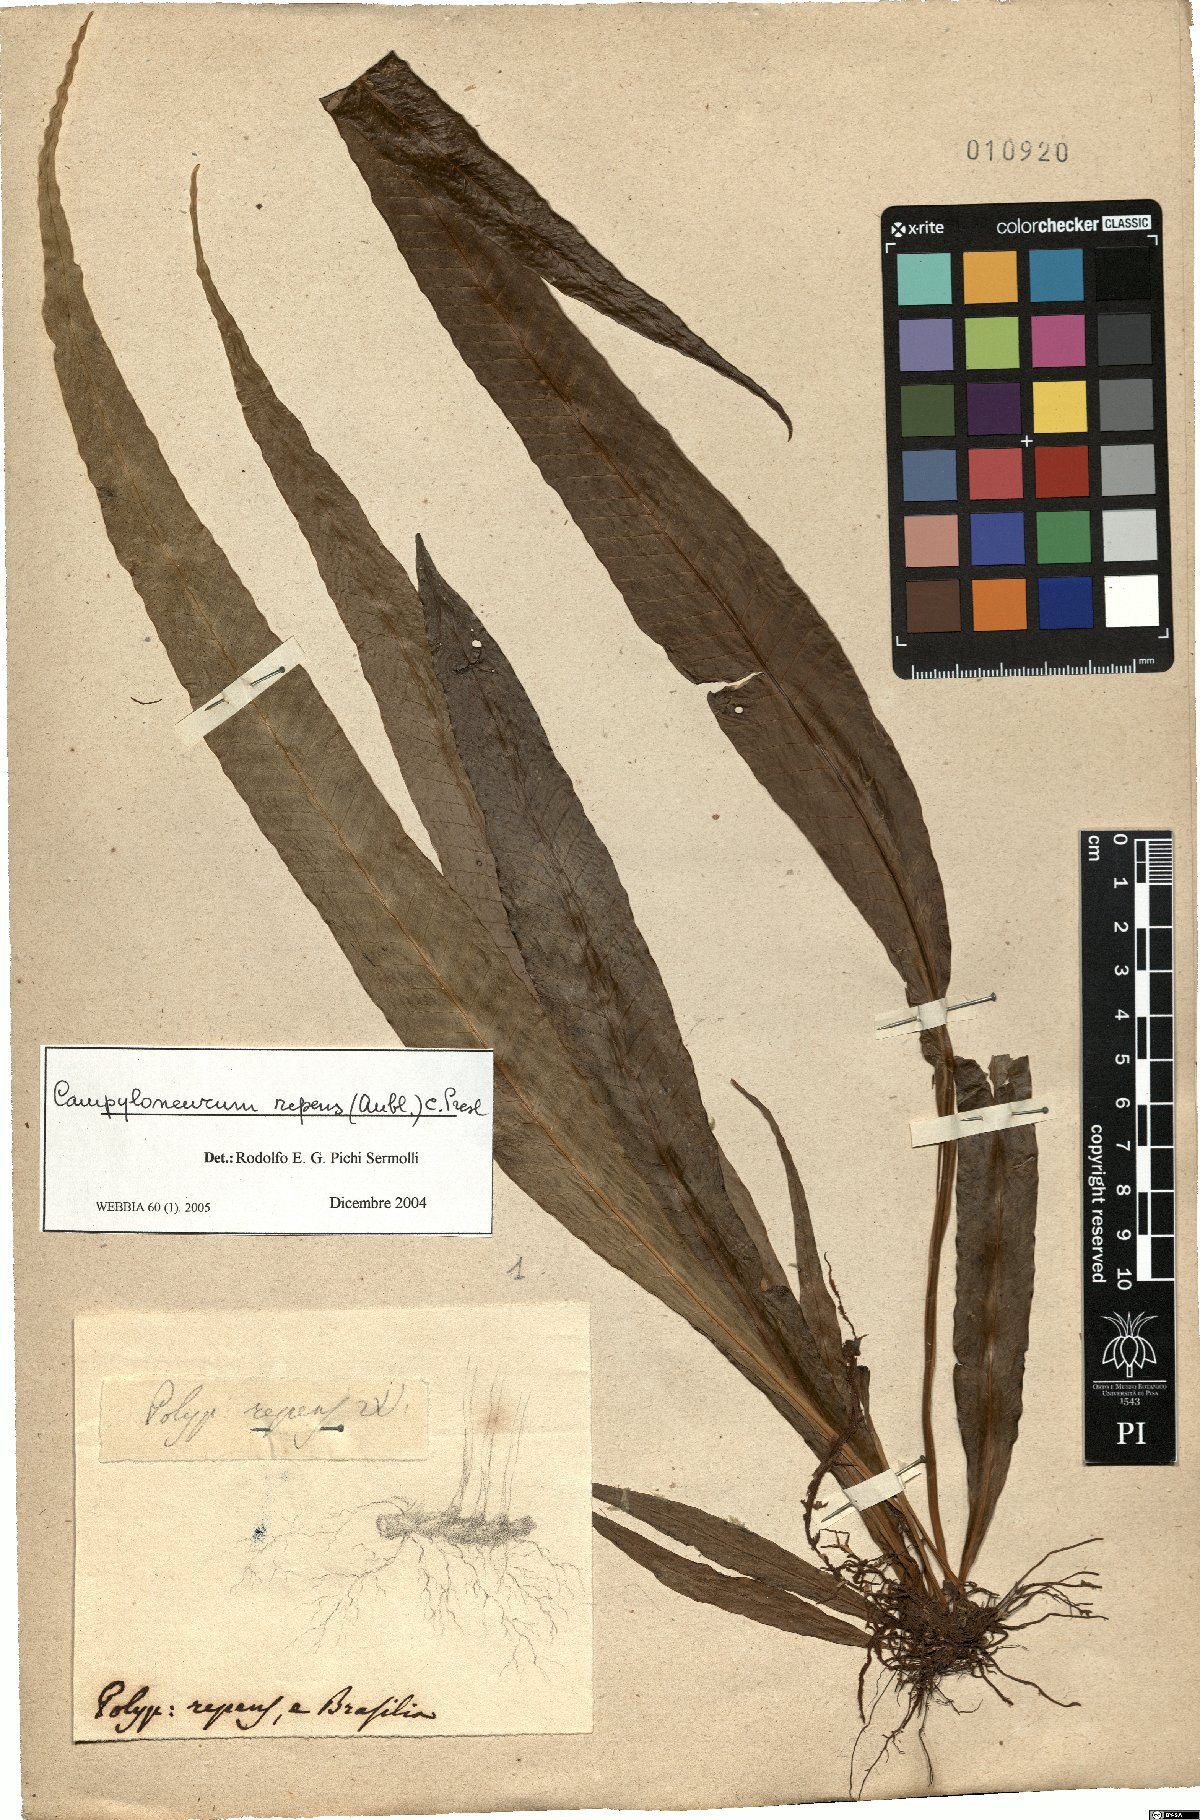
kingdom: Plantae
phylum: Tracheophyta
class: Polypodiopsida
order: Polypodiales
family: Polypodiaceae
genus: Campyloneurum
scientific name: Campyloneurum repens
